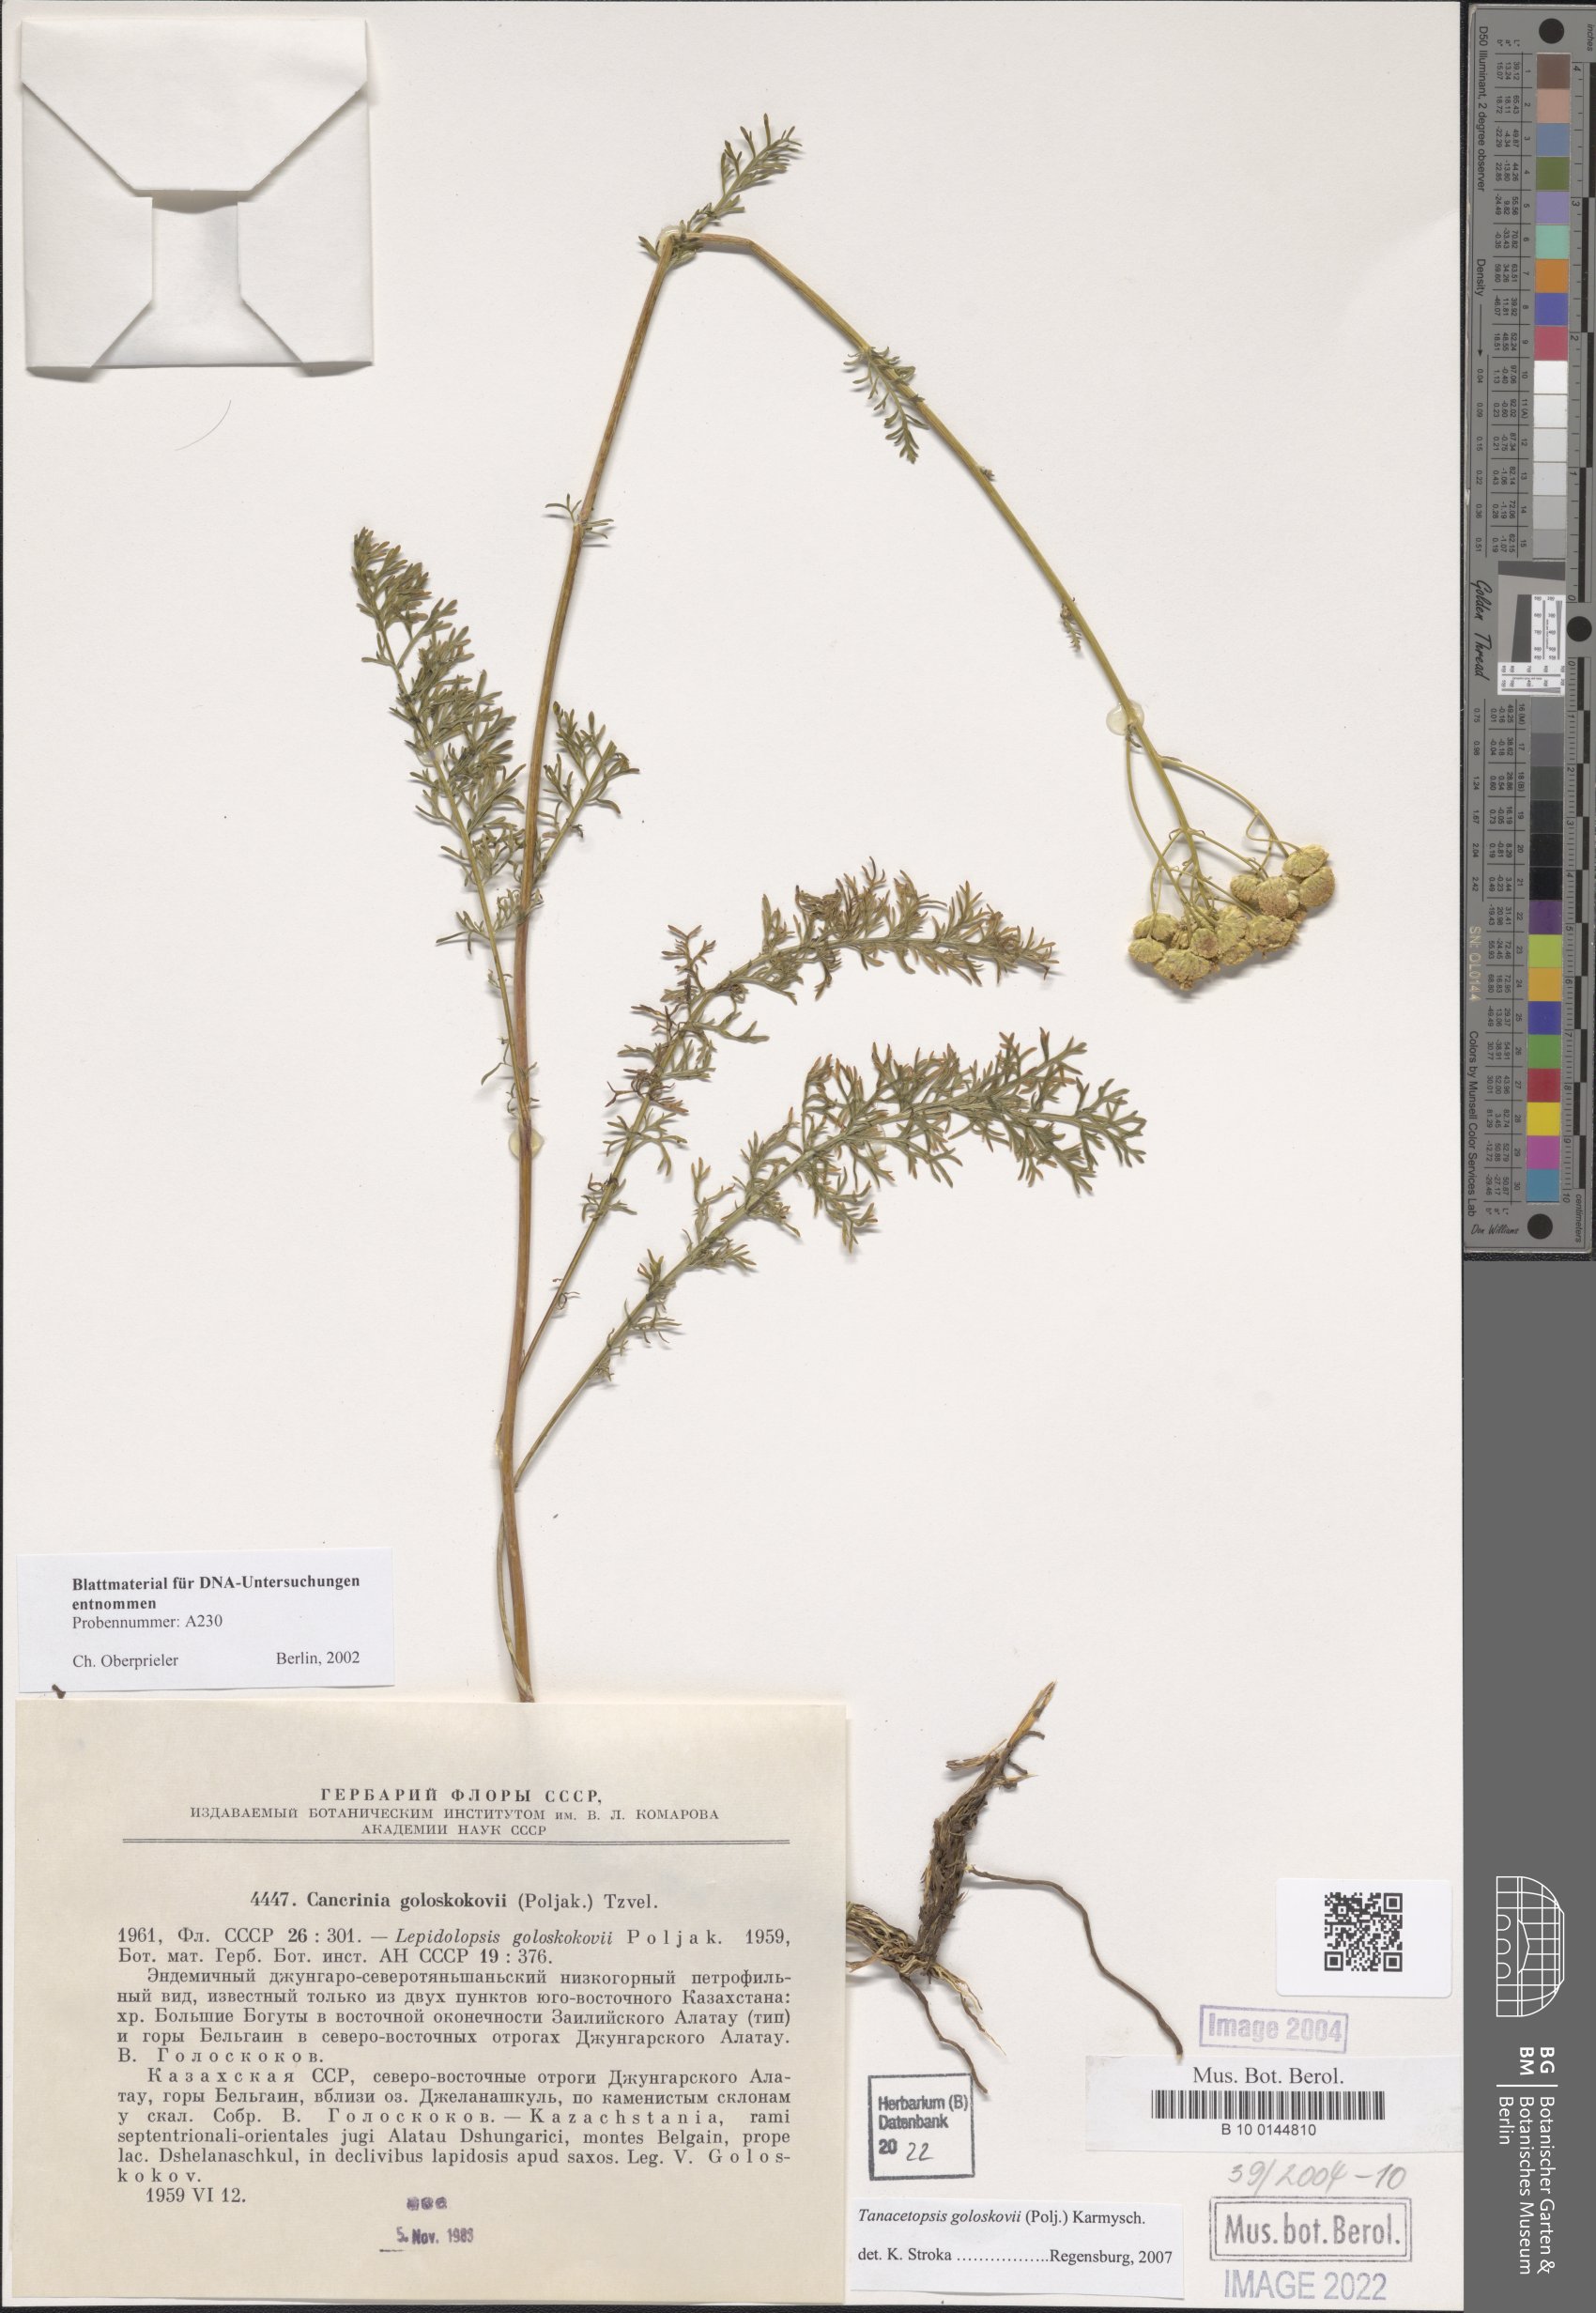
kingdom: Plantae
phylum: Tracheophyta
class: Magnoliopsida
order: Asterales
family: Asteraceae
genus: Tanacetopsis
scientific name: Tanacetopsis goloskokovii
